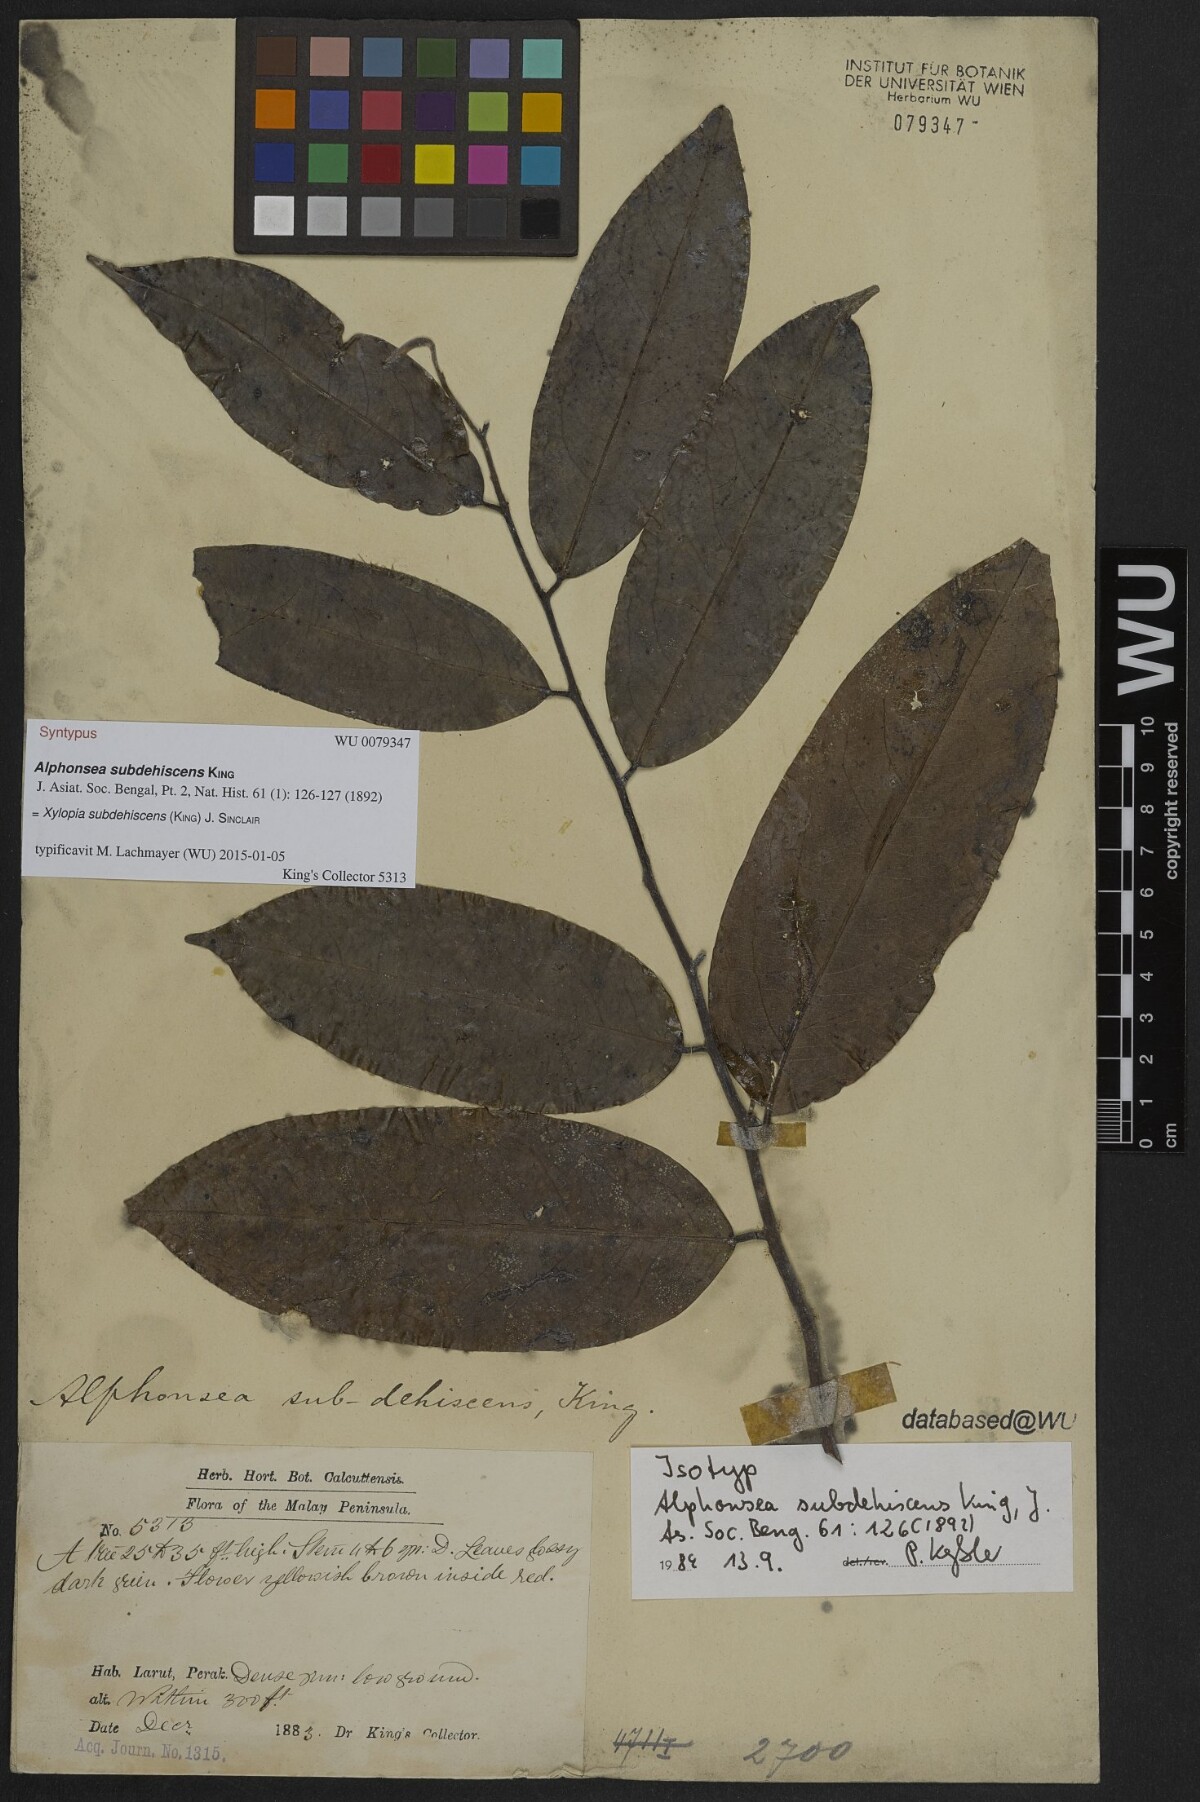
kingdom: Plantae
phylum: Tracheophyta
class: Magnoliopsida
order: Magnoliales
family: Annonaceae
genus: Xylopia
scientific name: Xylopia subdehiscens
